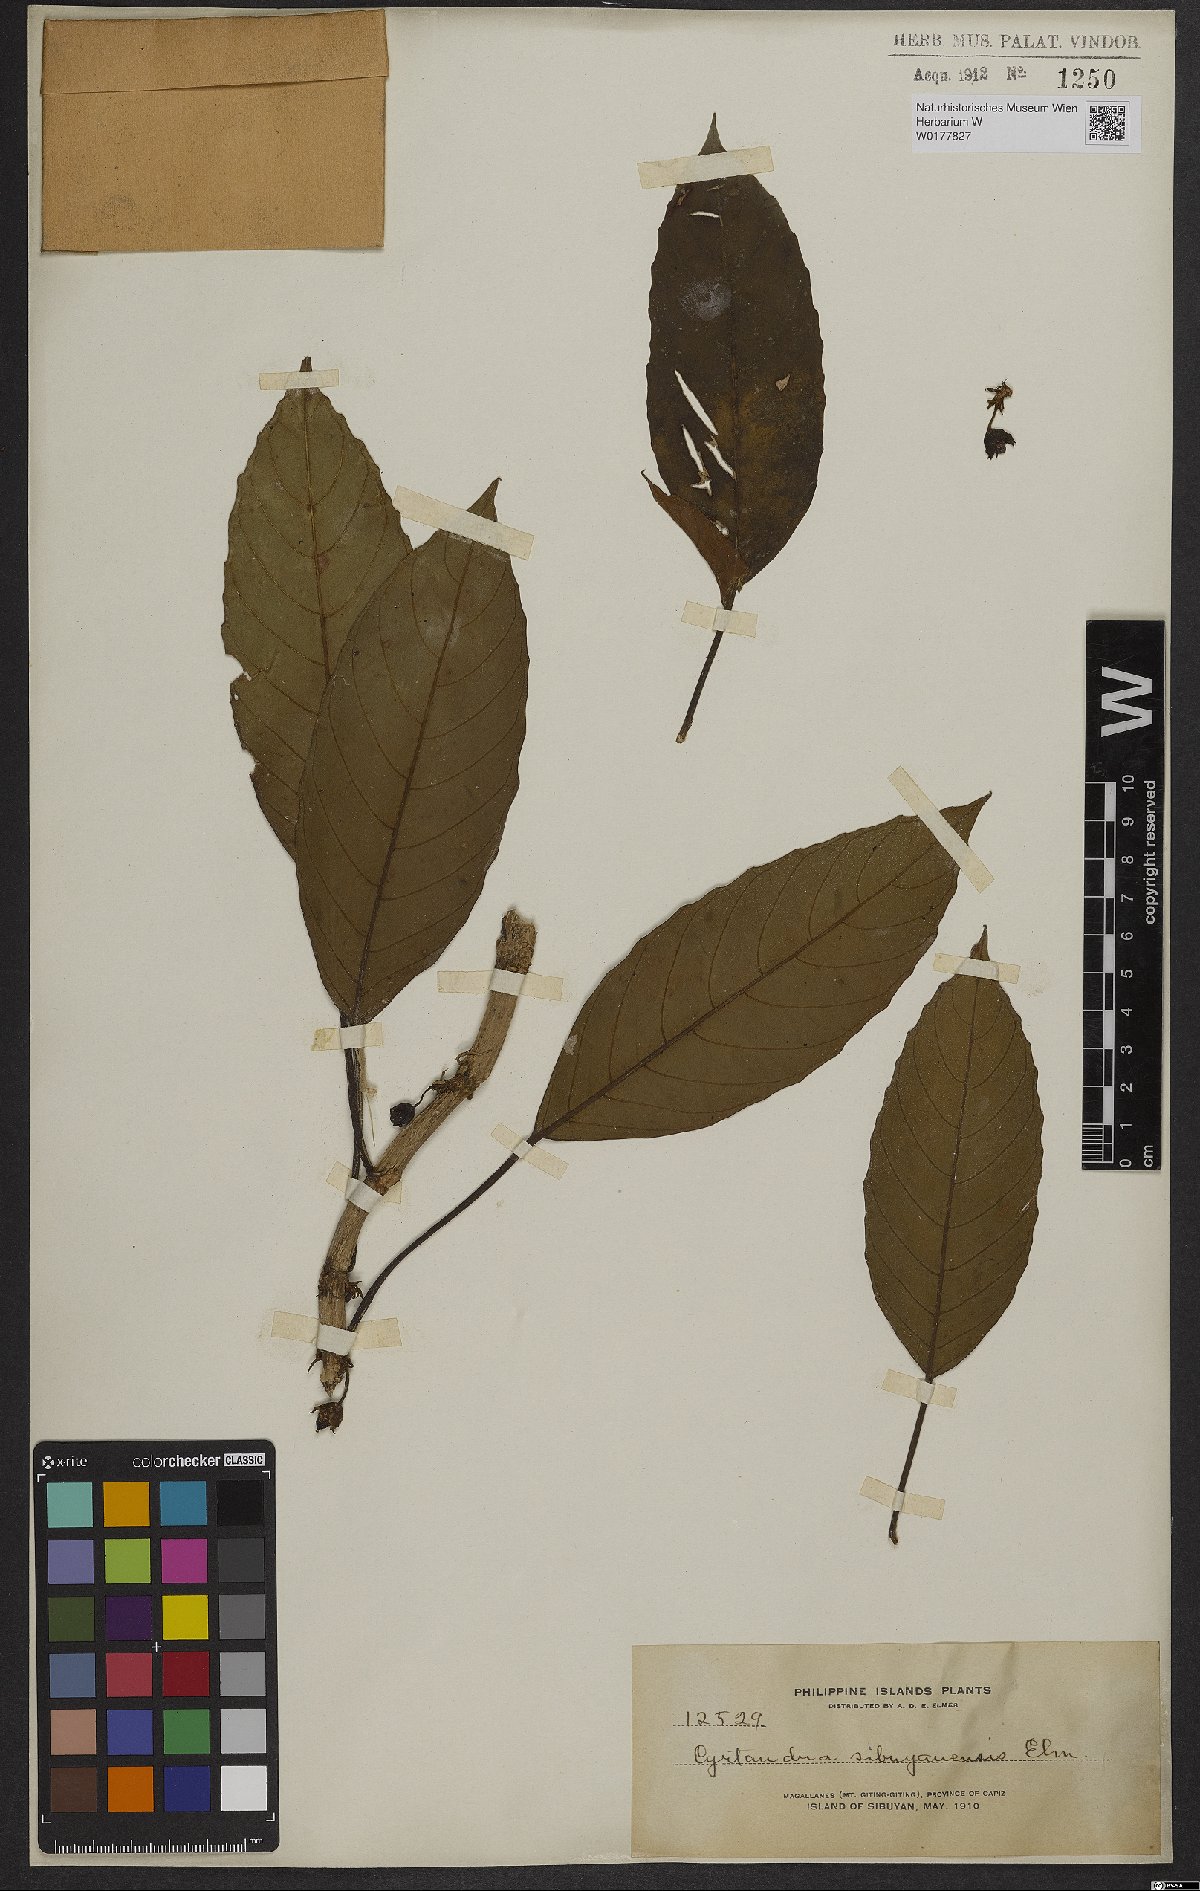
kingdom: Plantae
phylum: Tracheophyta
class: Magnoliopsida
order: Lamiales
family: Gesneriaceae
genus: Cyrtandra
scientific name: Cyrtandra
